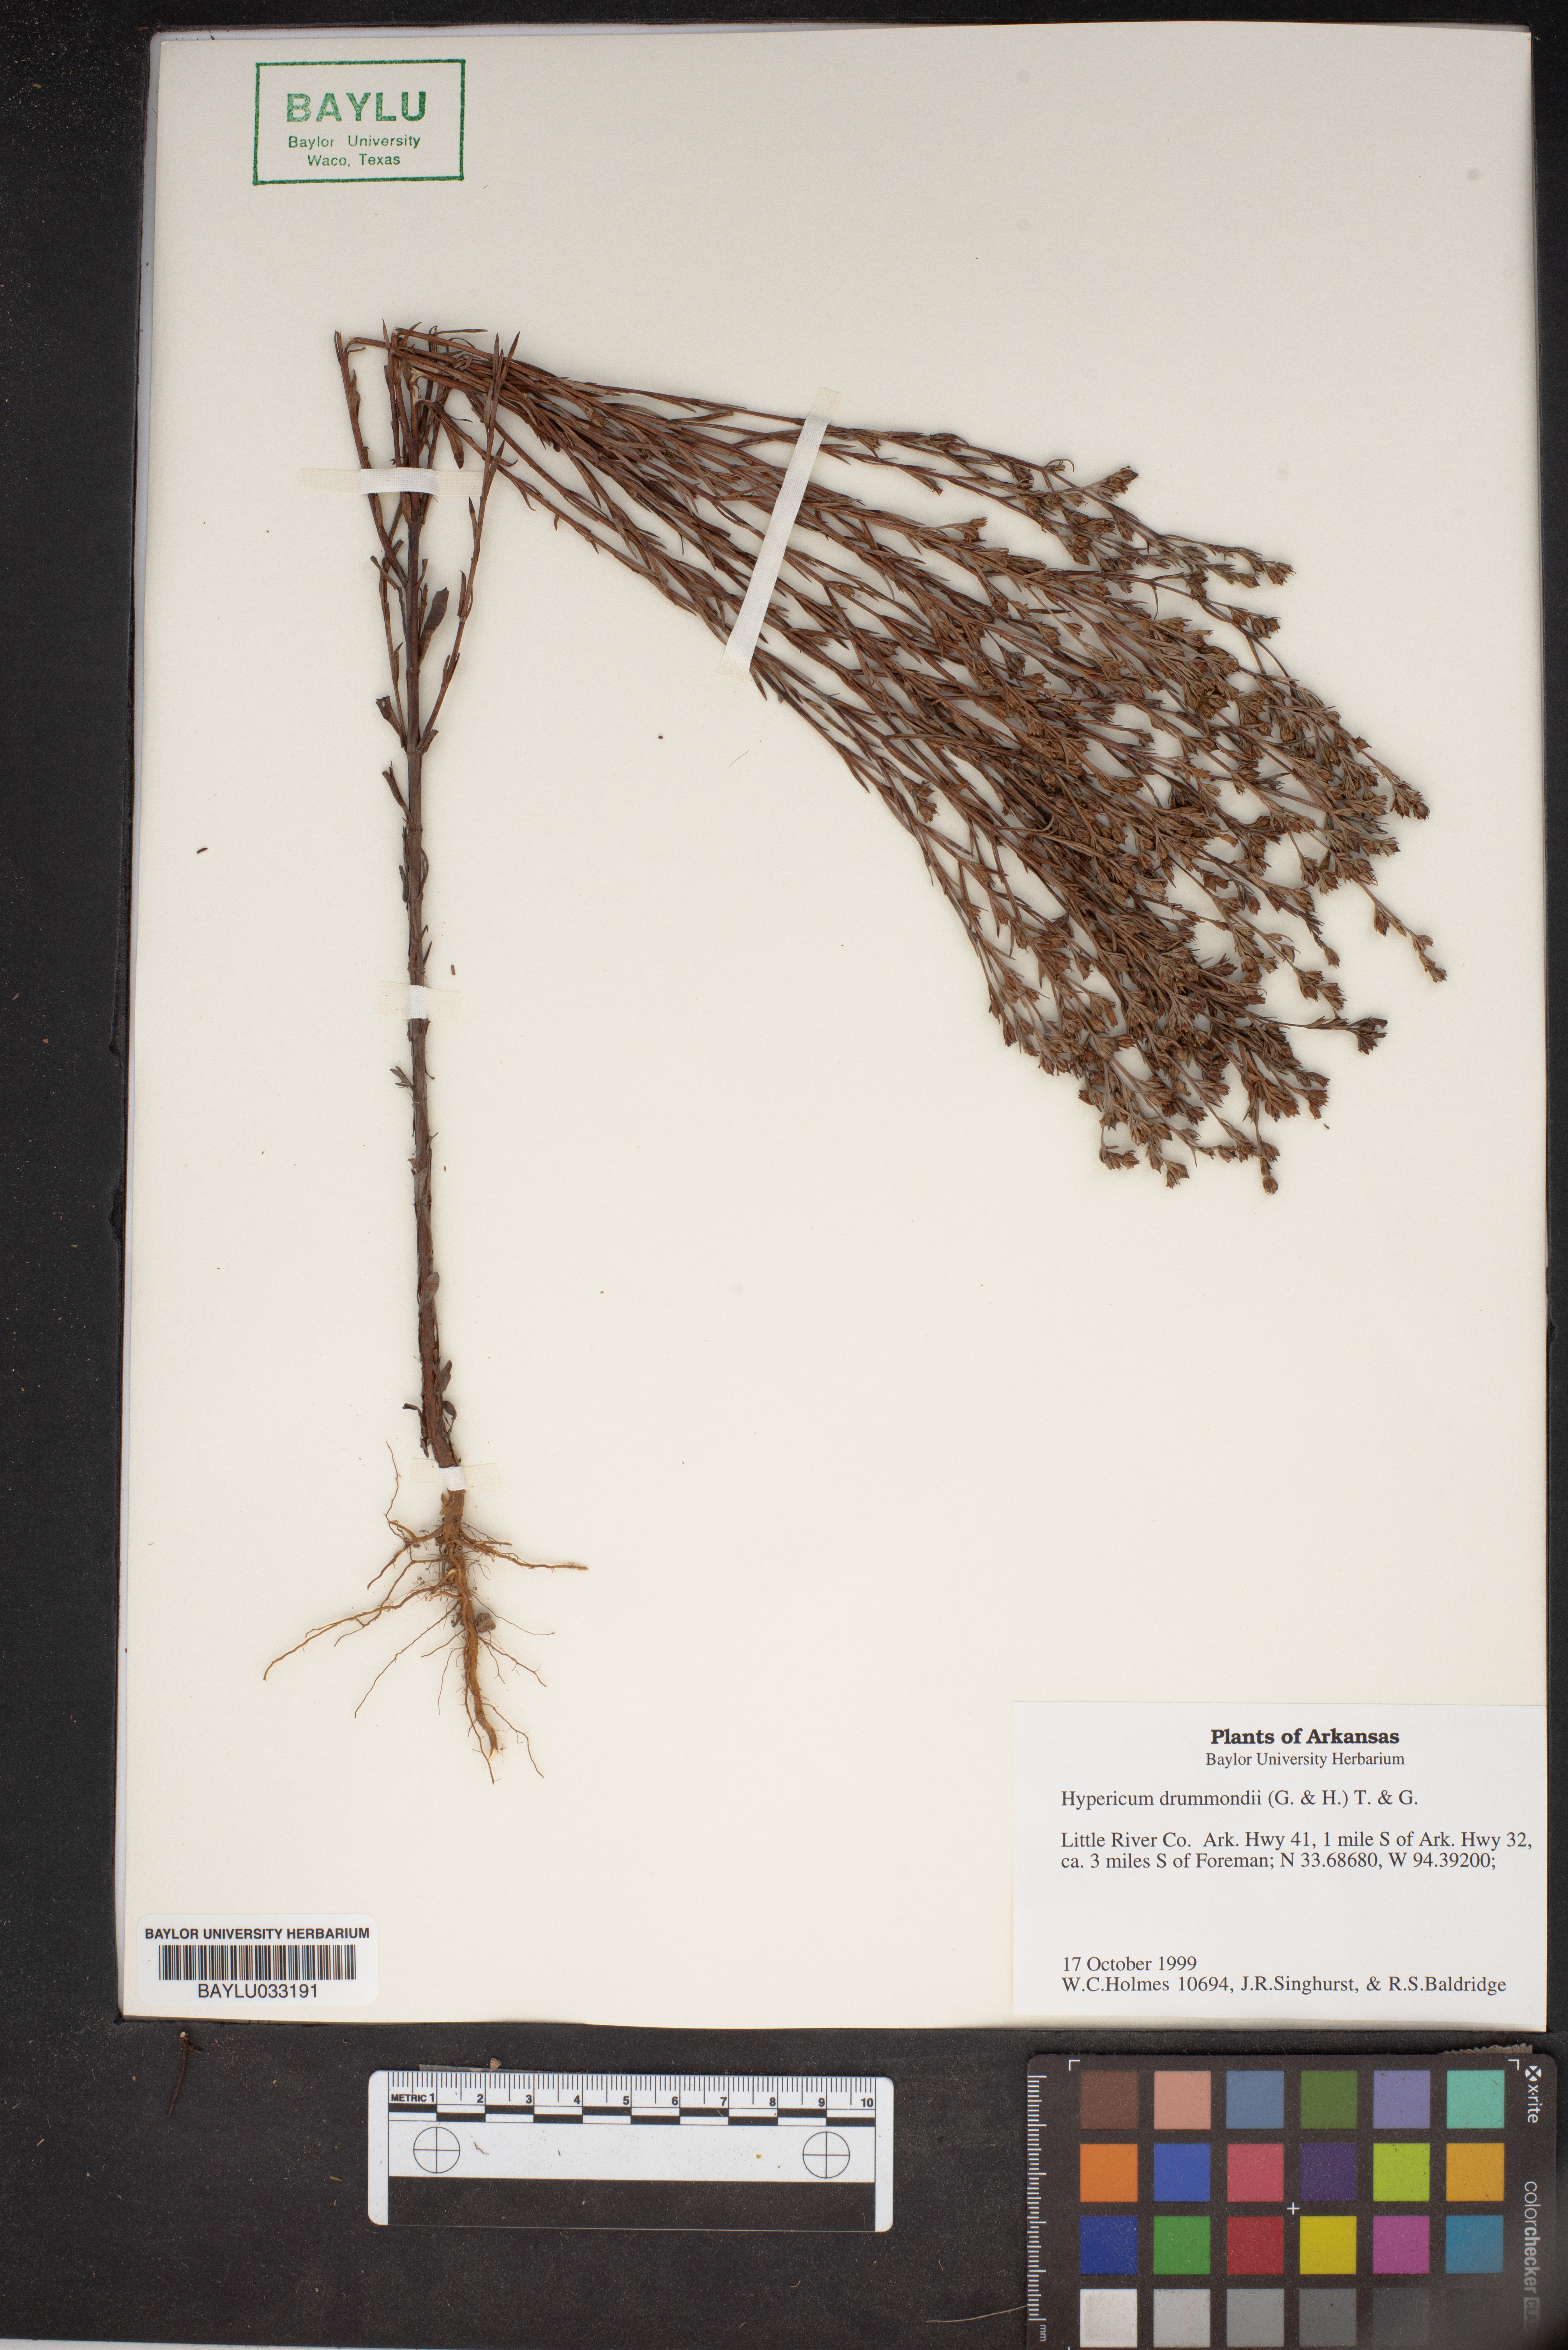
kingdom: Plantae
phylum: Tracheophyta
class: Magnoliopsida
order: Malpighiales
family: Hypericaceae
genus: Hypericum
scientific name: Hypericum drummondii
